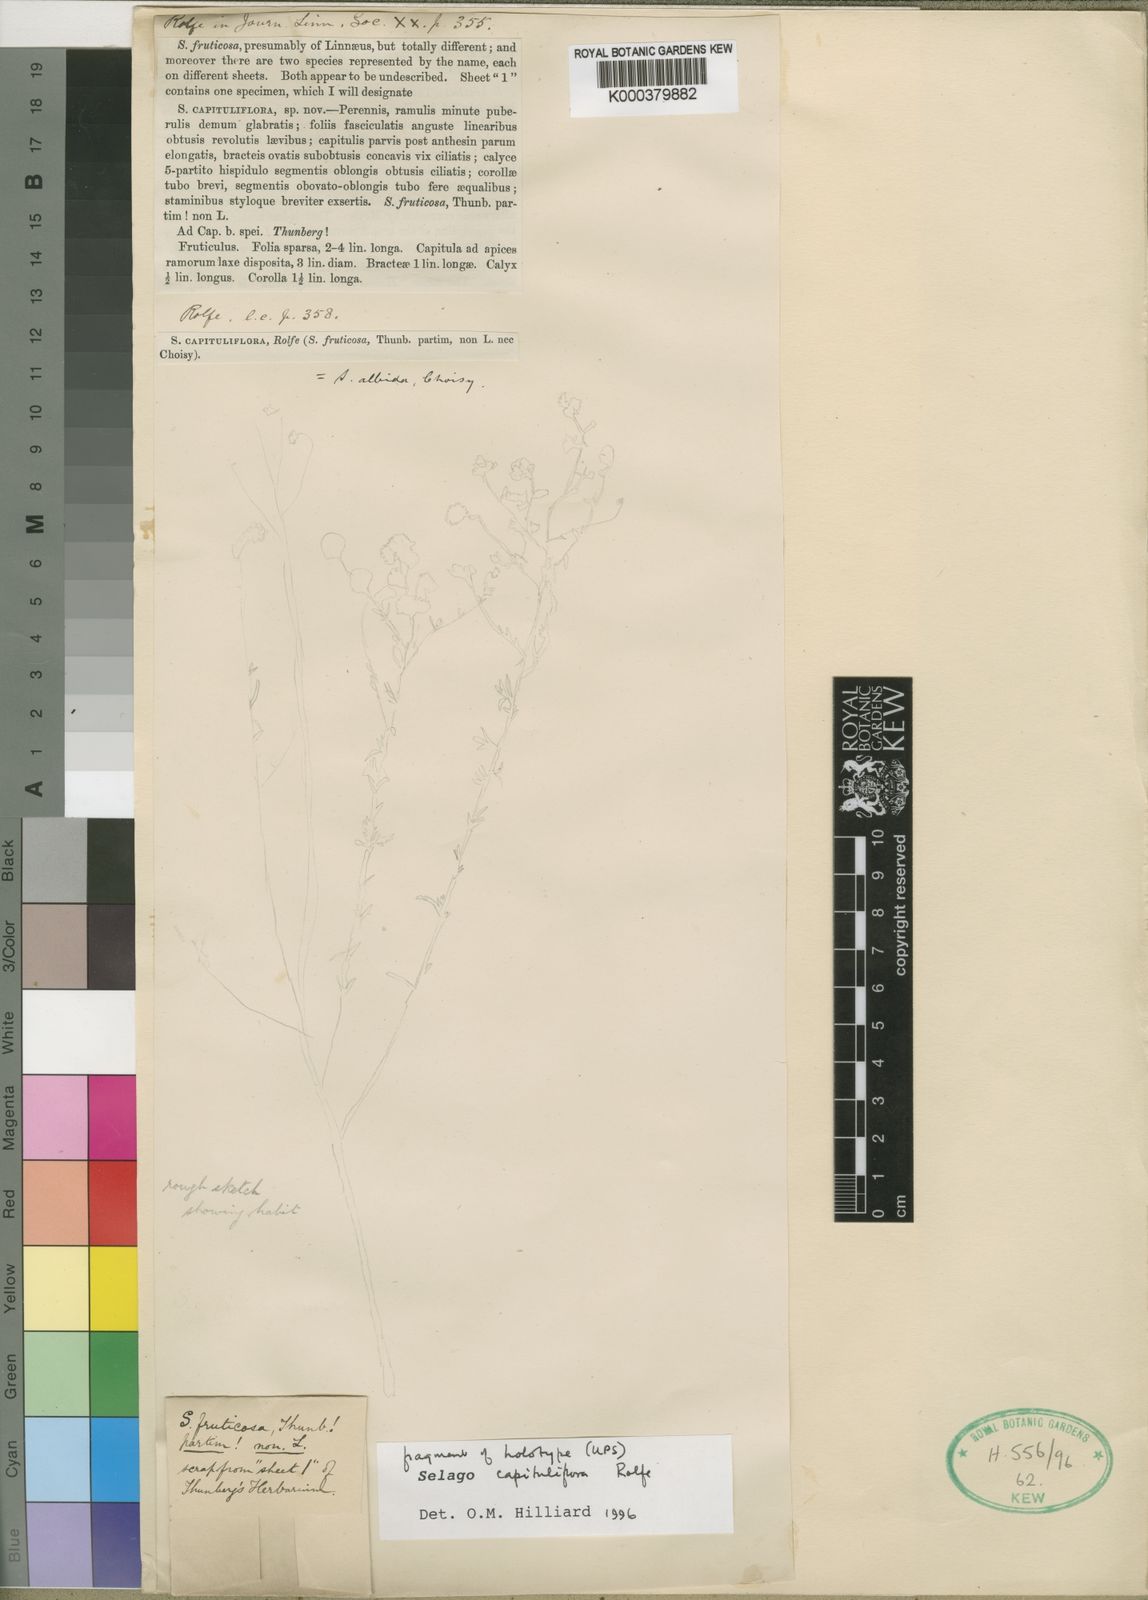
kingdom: Plantae
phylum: Tracheophyta
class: Magnoliopsida
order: Lamiales
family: Scrophulariaceae
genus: Selago
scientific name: Selago capituliflora
